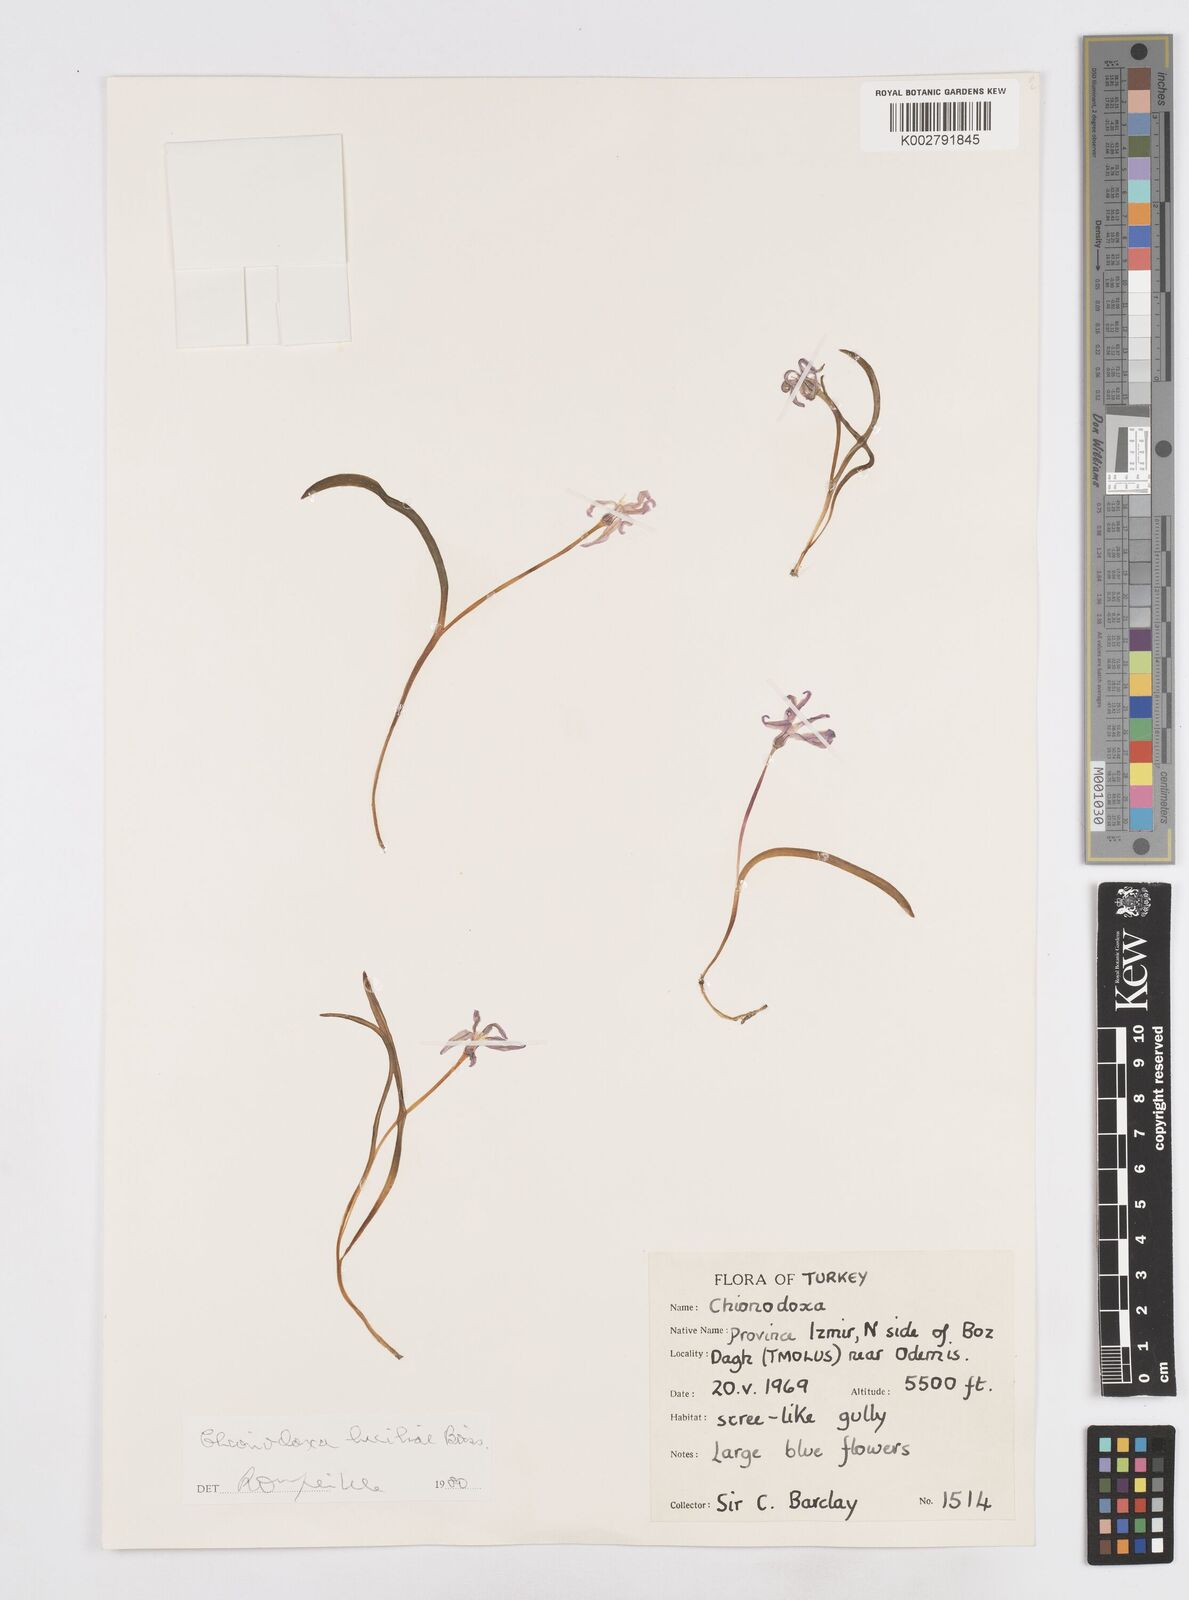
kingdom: Plantae
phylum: Tracheophyta
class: Liliopsida
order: Asparagales
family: Asparagaceae
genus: Scilla
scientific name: Scilla luciliae
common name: Boissier's glory-of-the-snow
